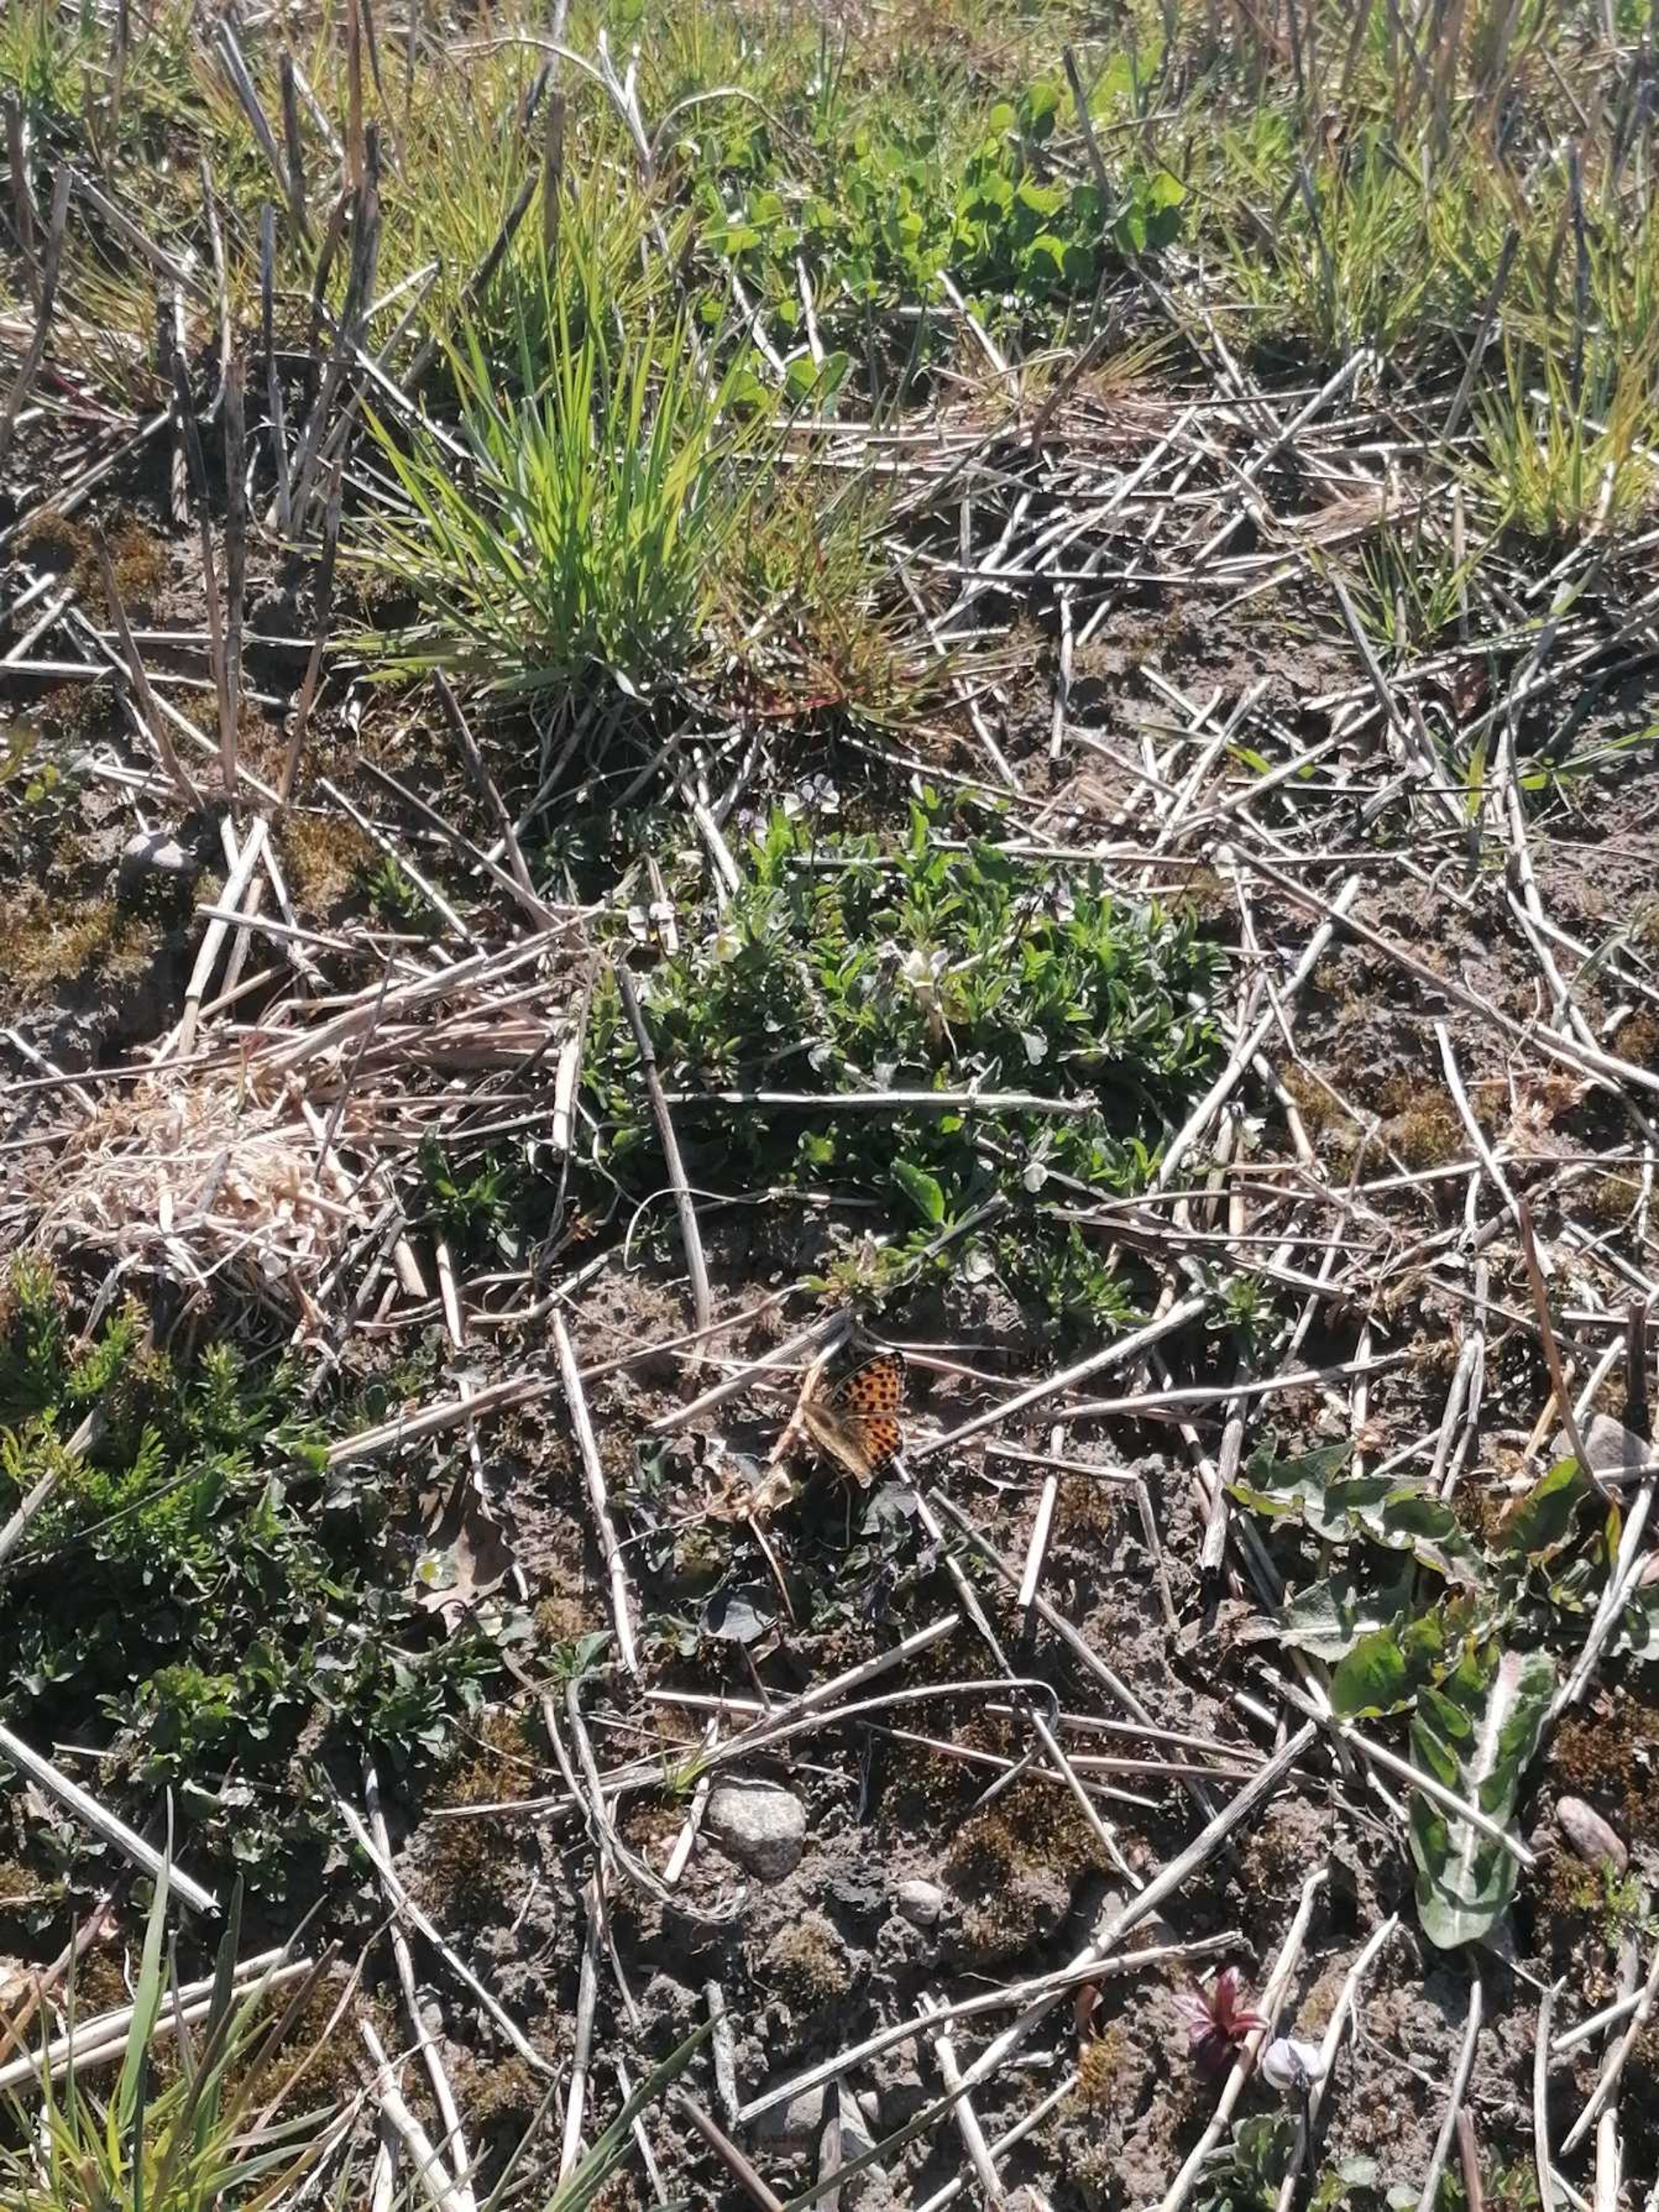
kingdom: Animalia
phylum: Arthropoda
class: Insecta
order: Lepidoptera
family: Nymphalidae
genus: Issoria
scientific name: Issoria lathonia
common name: Storplettet perlemorsommerfugl
